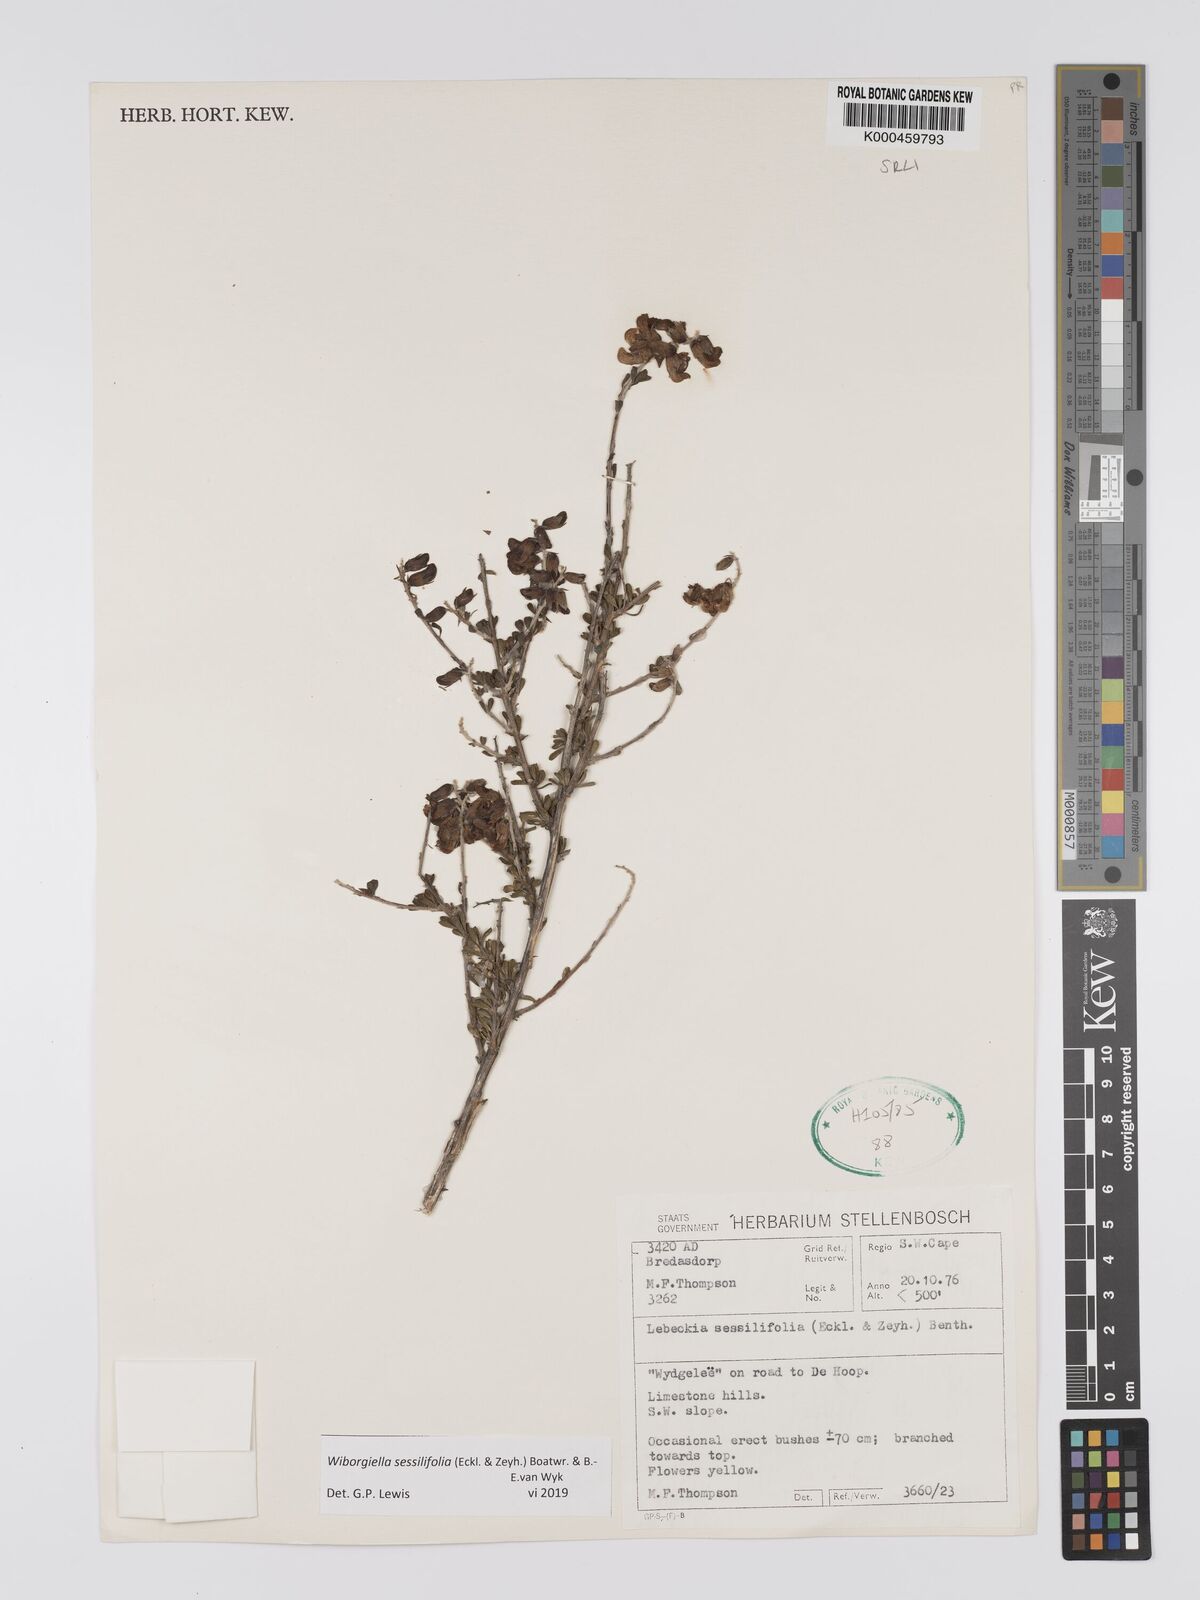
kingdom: Plantae
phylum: Tracheophyta
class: Magnoliopsida
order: Fabales
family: Fabaceae
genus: Wiborgiella
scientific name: Wiborgiella sessilifolia
